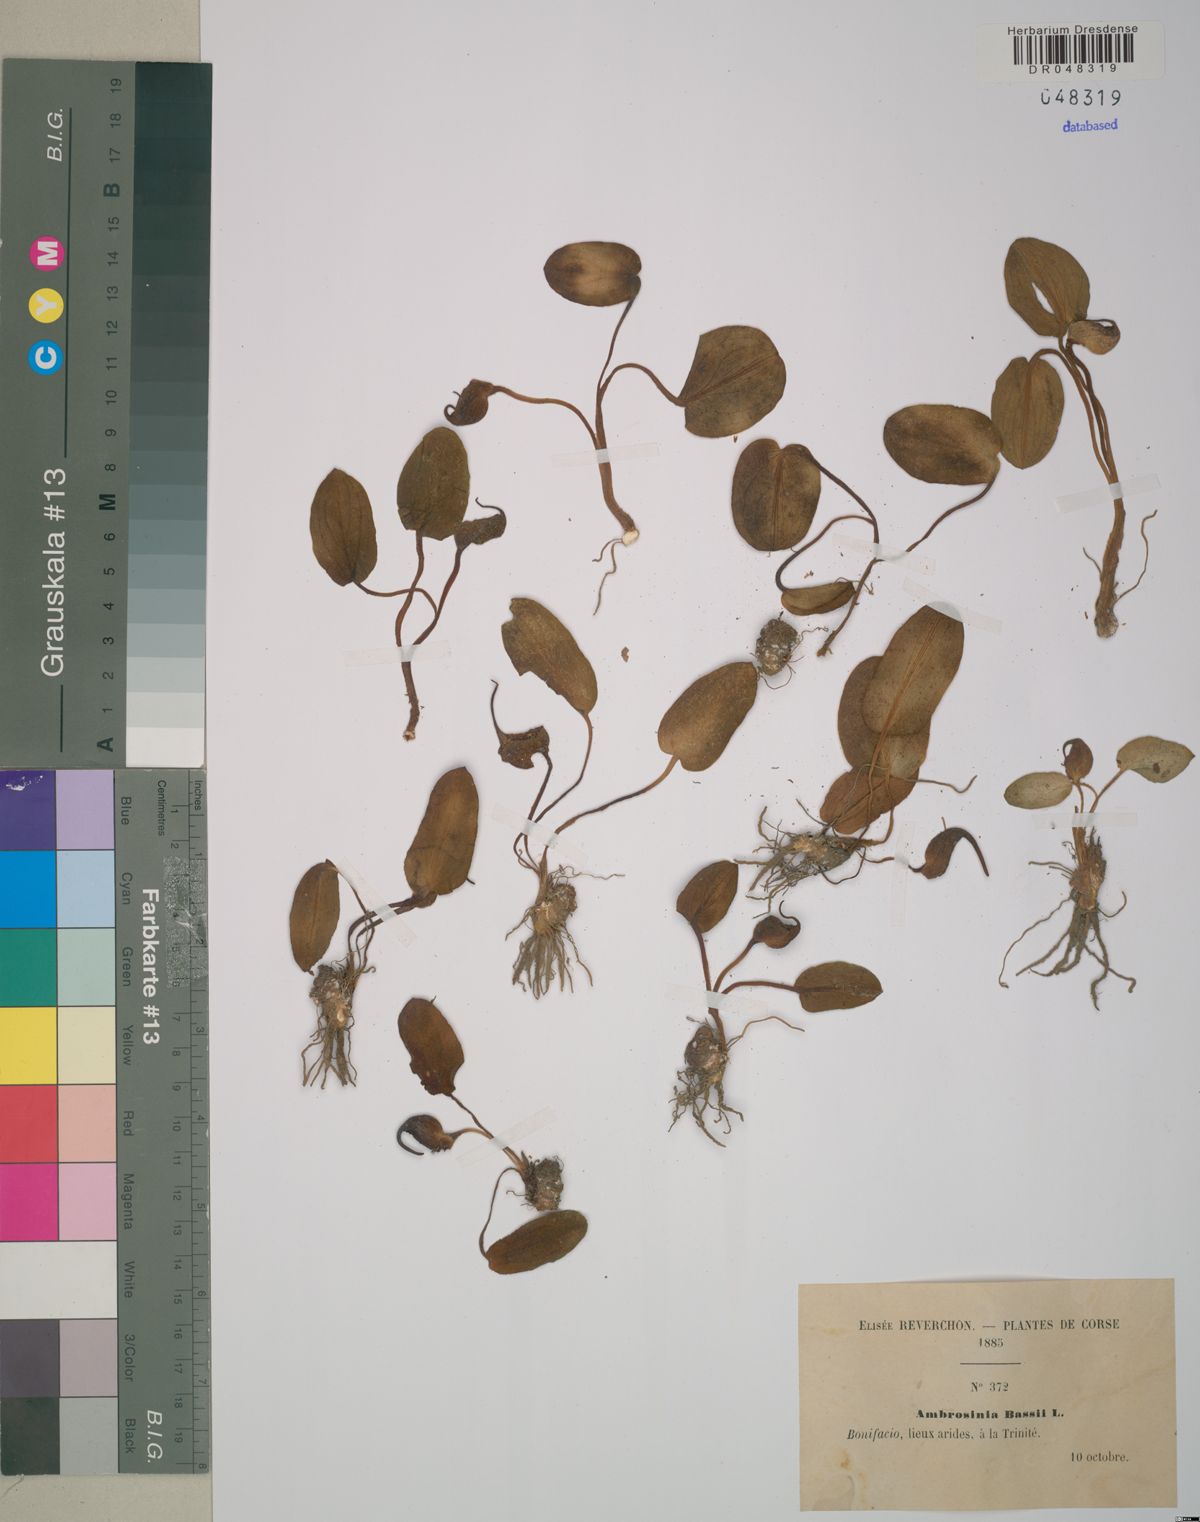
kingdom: Plantae
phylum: Tracheophyta
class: Liliopsida
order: Alismatales
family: Araceae
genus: Ambrosina
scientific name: Ambrosina bassii
